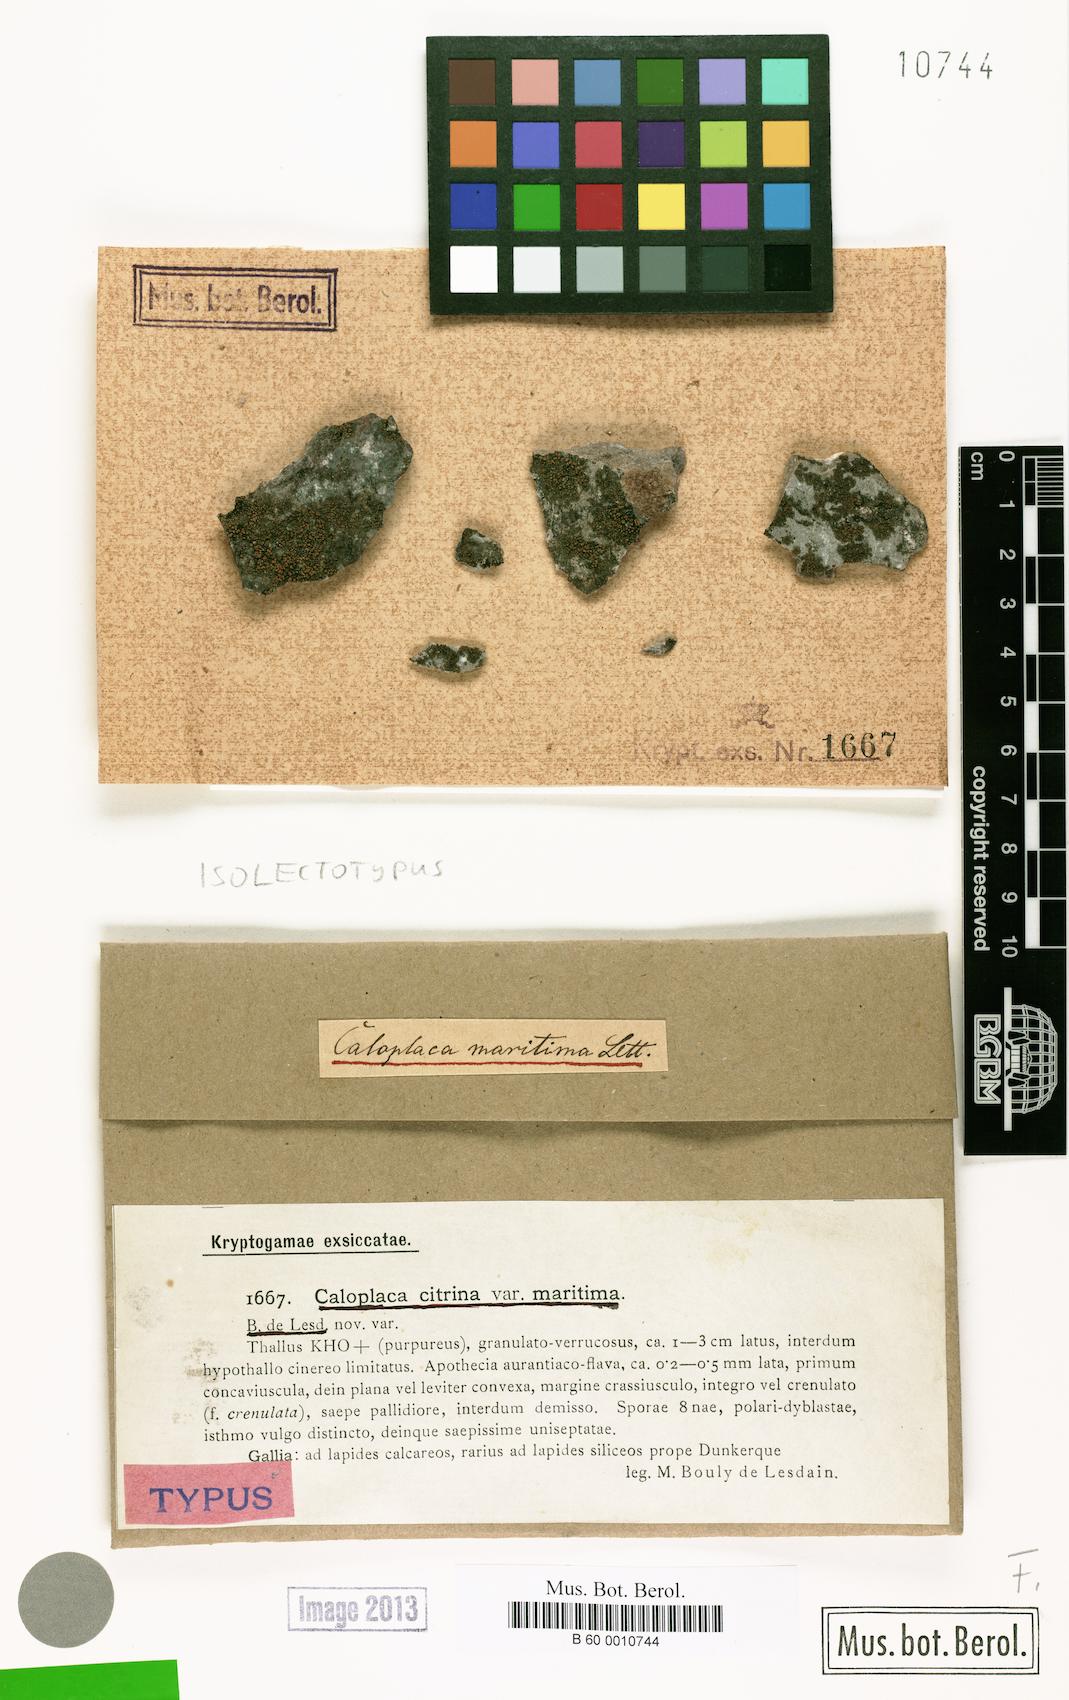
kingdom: Fungi
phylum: Ascomycota
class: Lecanoromycetes
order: Teloschistales
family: Teloschistaceae
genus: Flavoplaca
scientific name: Flavoplaca maritima
